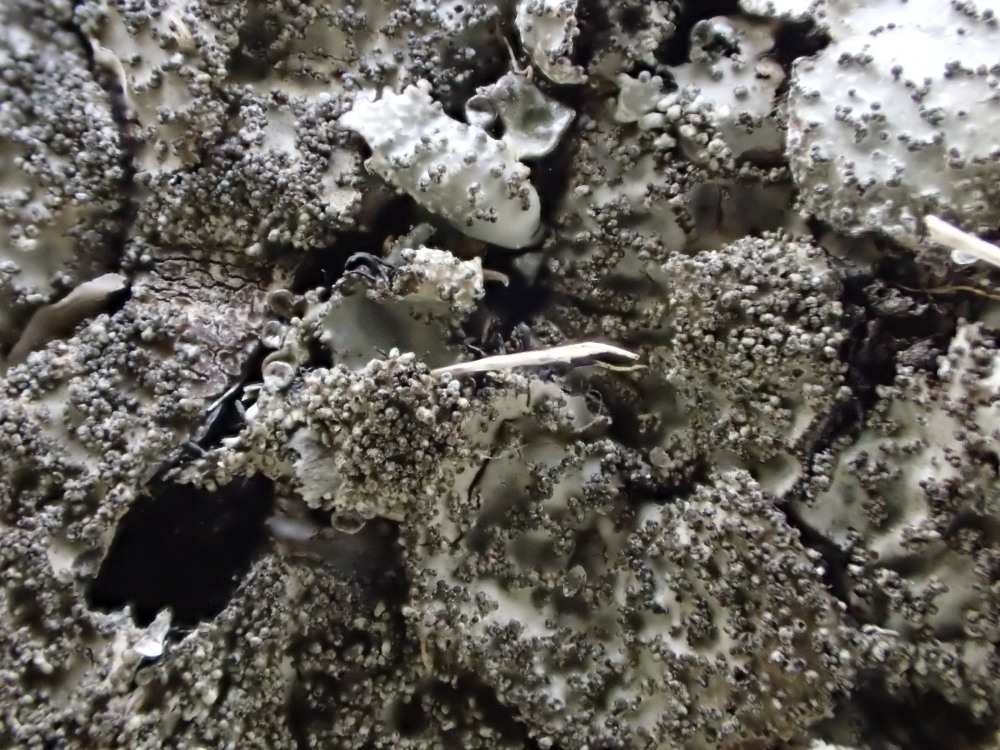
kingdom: Fungi
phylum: Ascomycota
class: Lecanoromycetes
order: Lecanorales
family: Parmeliaceae
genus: Parmelia
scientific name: Parmelia saxatilis
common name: farve-skållav
